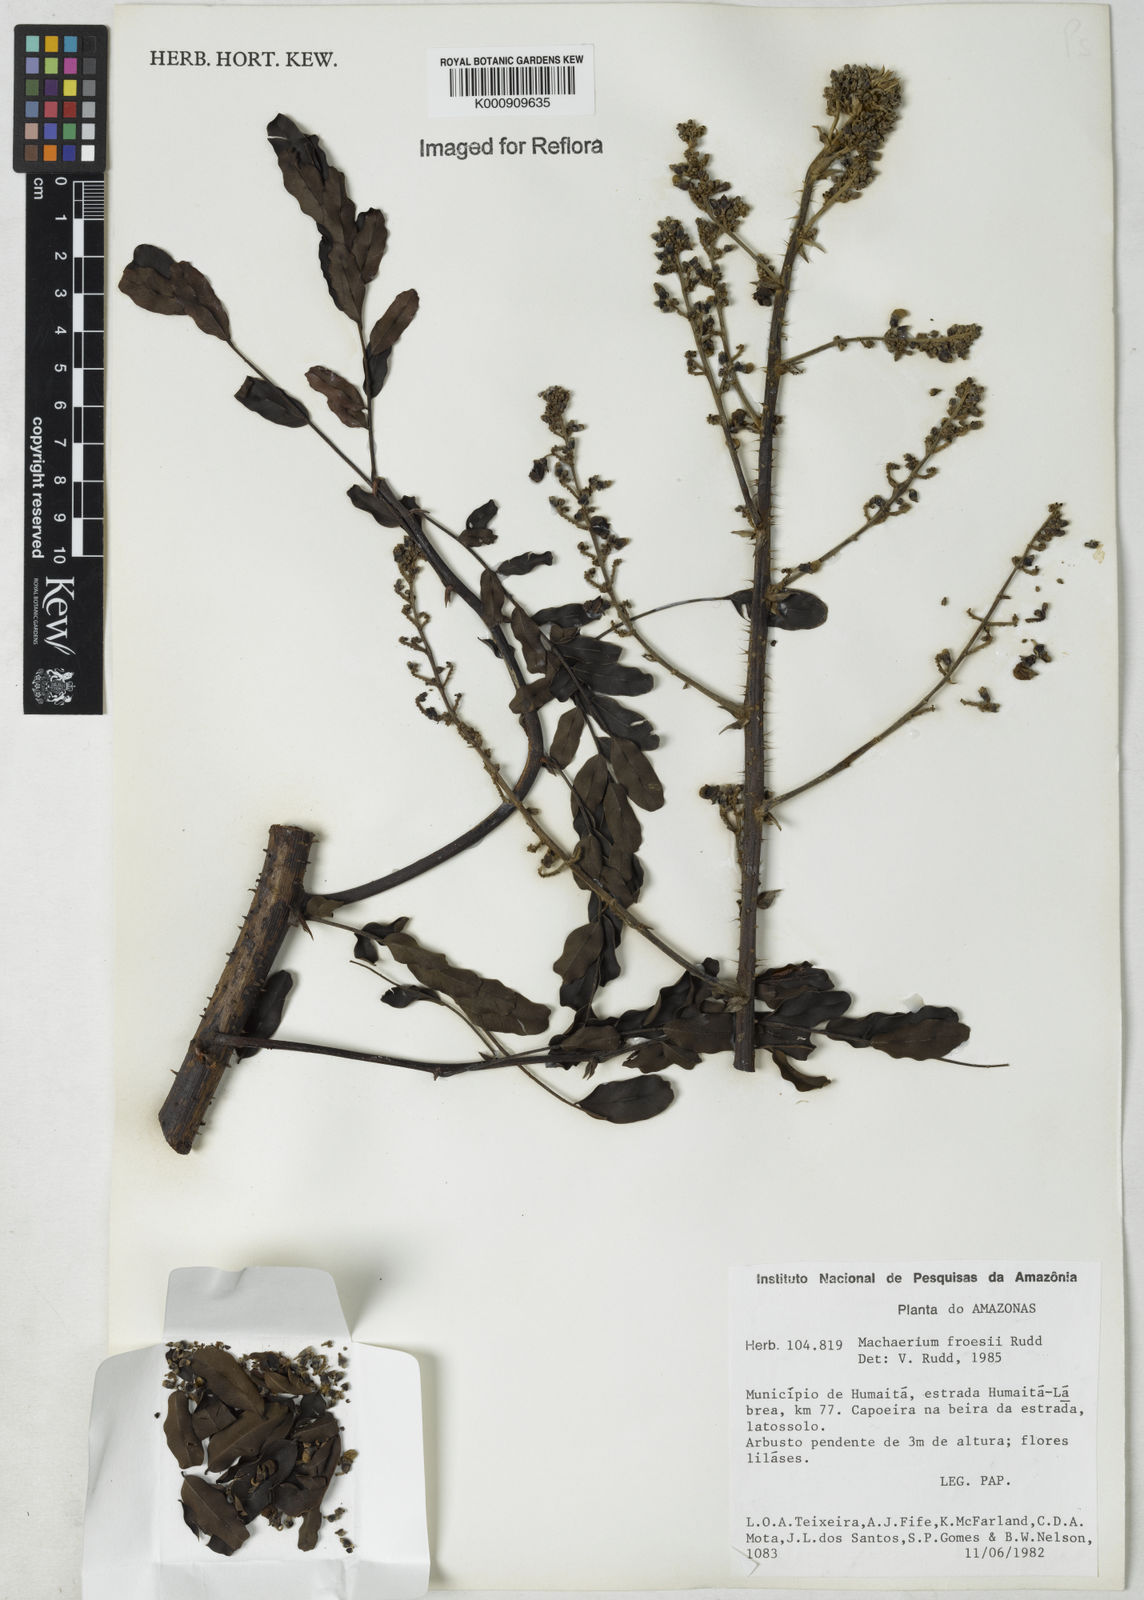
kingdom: Plantae
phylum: Tracheophyta
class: Magnoliopsida
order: Fabales
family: Fabaceae
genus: Machaerium
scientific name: Machaerium froesii
